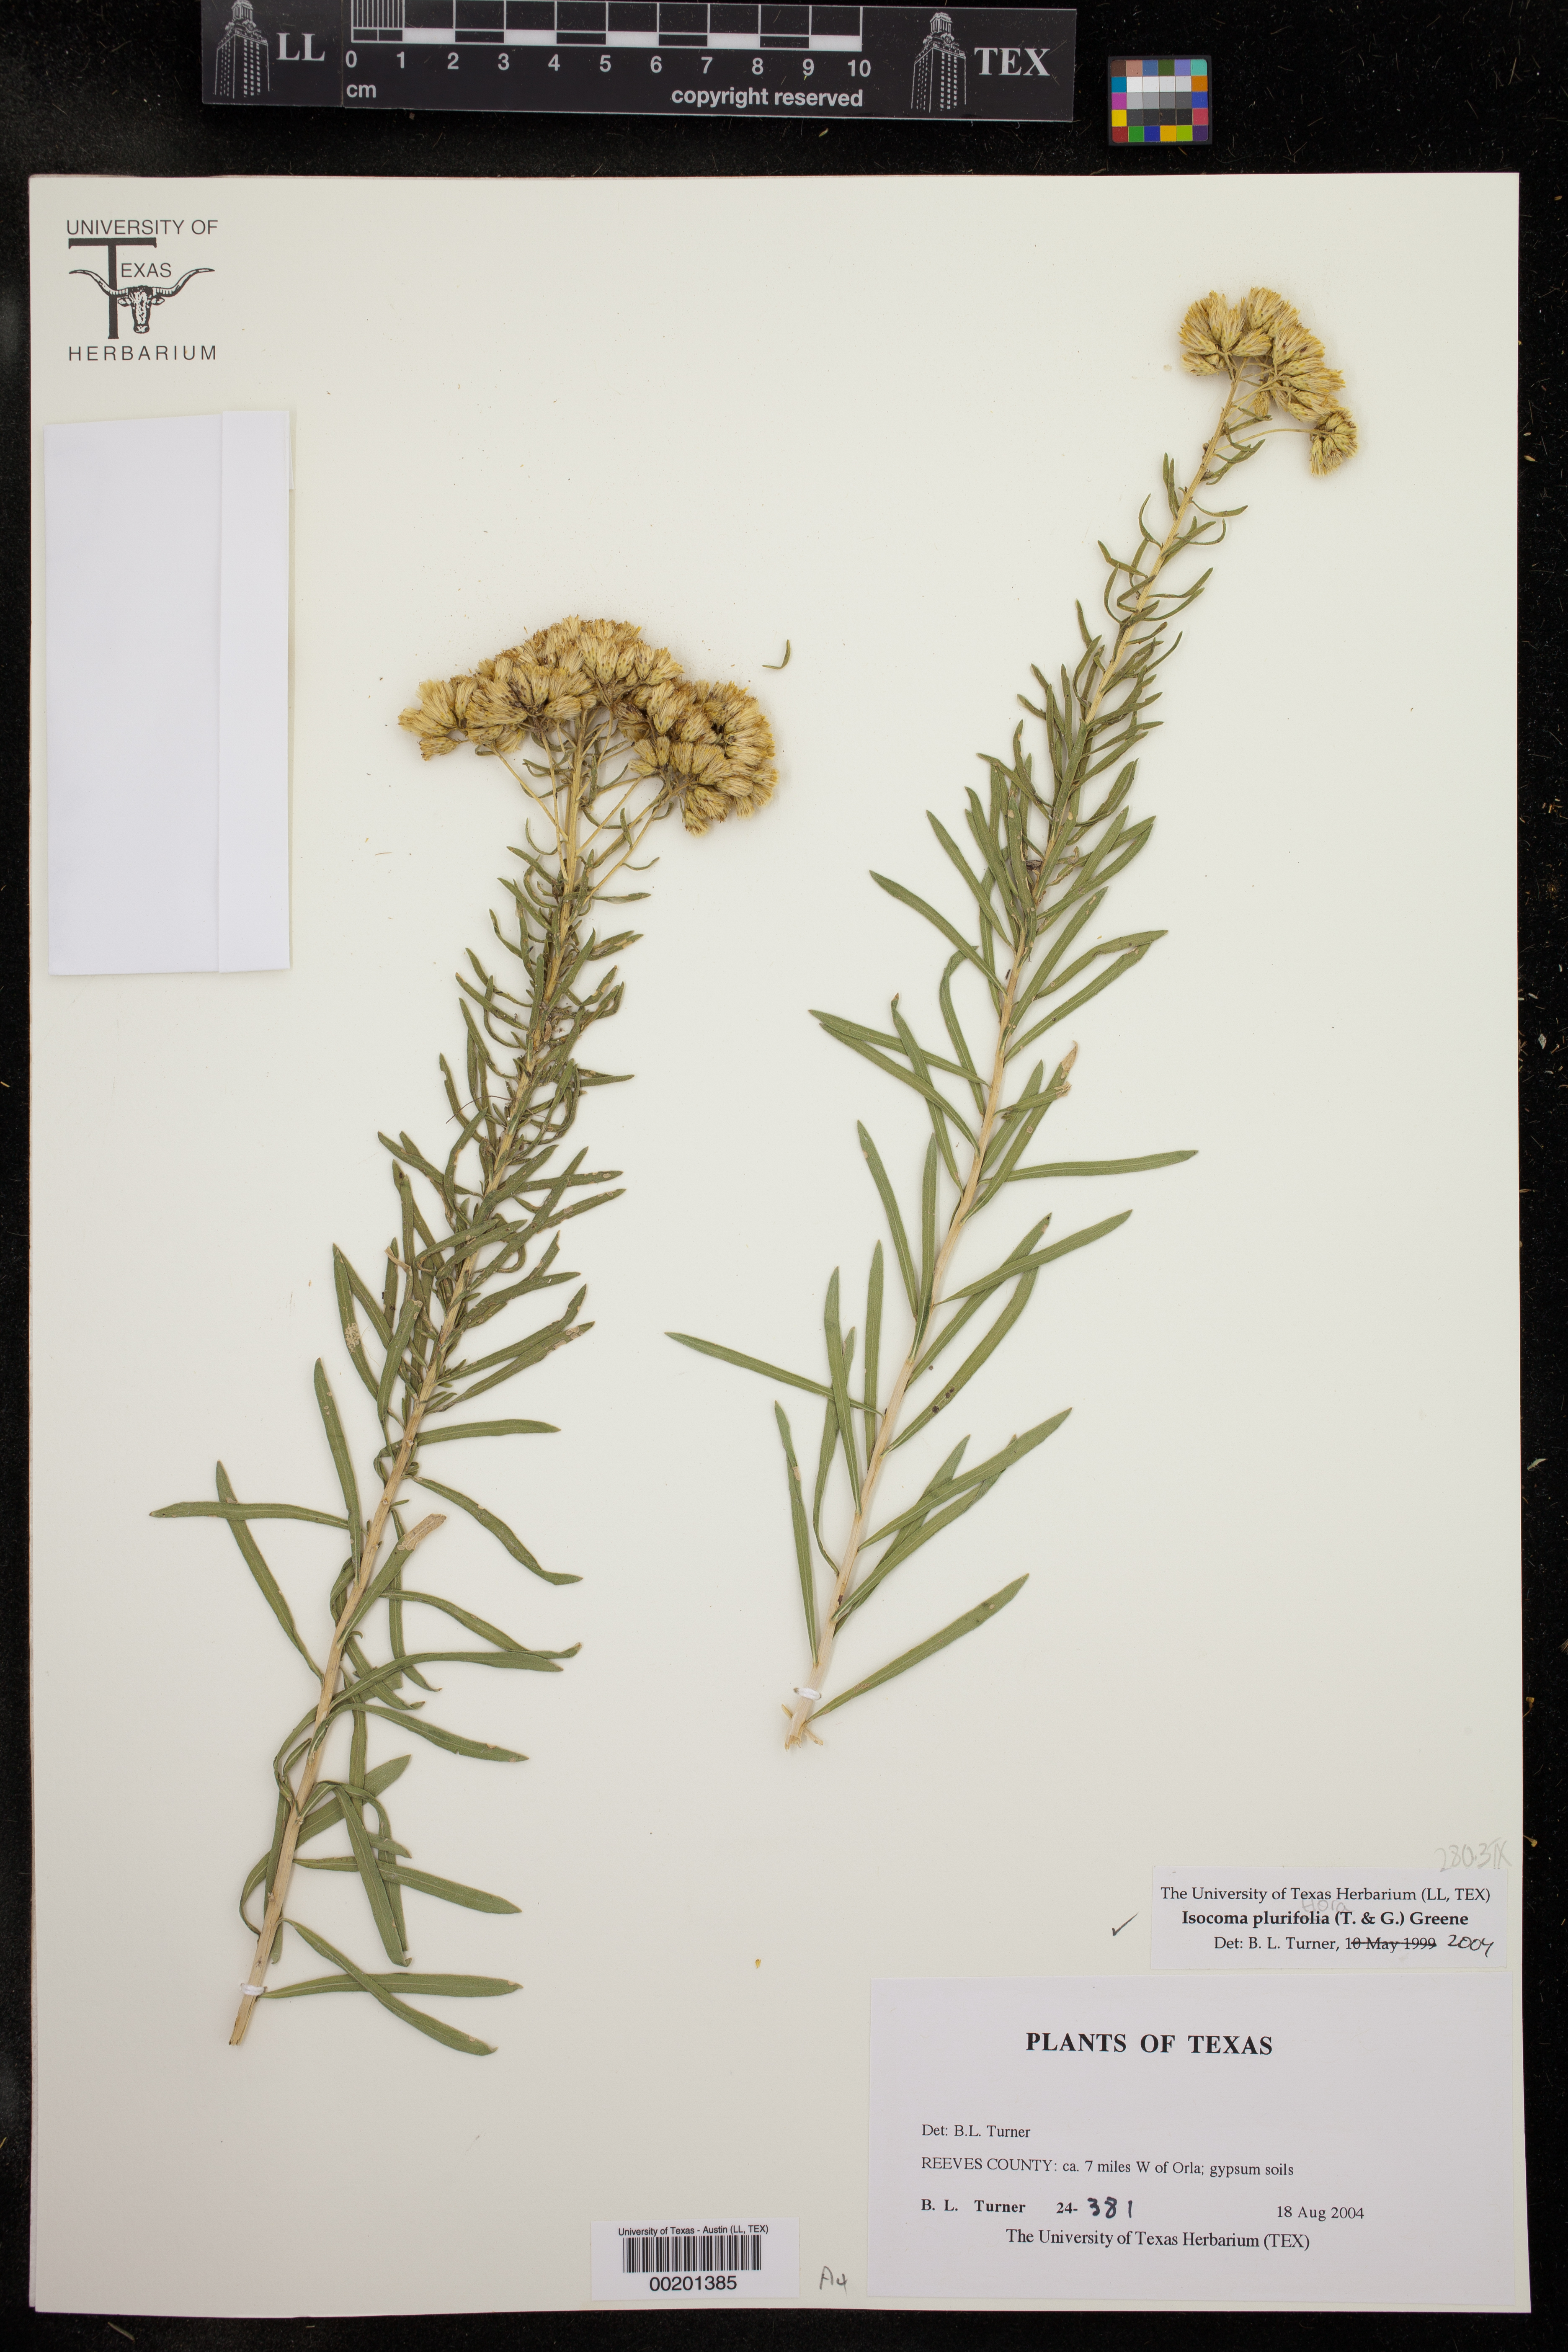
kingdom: Plantae
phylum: Tracheophyta
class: Magnoliopsida
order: Asterales
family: Asteraceae
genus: Isocoma
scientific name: Isocoma pluriflora
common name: Southern jimmyweed
